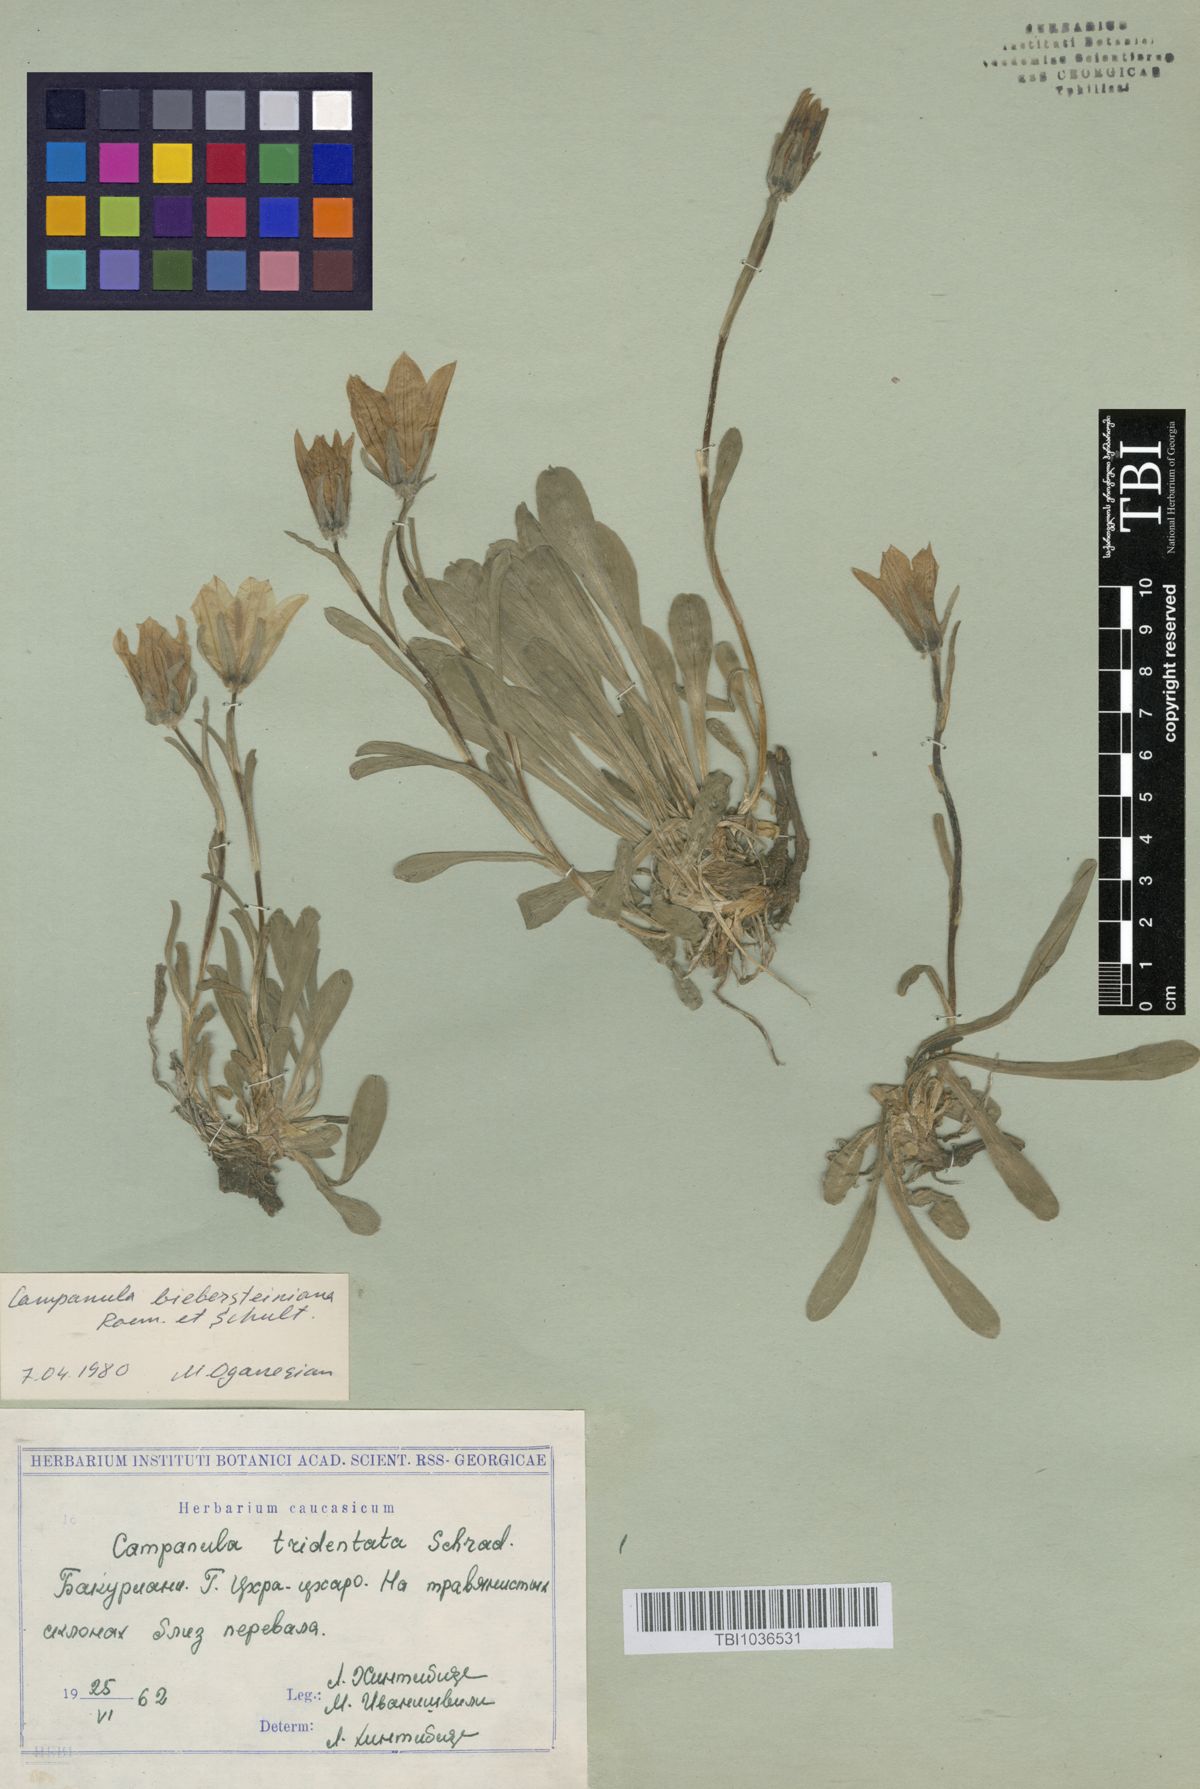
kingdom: Plantae
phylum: Tracheophyta
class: Magnoliopsida
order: Asterales
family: Campanulaceae
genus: Campanula
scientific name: Campanula tridentata
